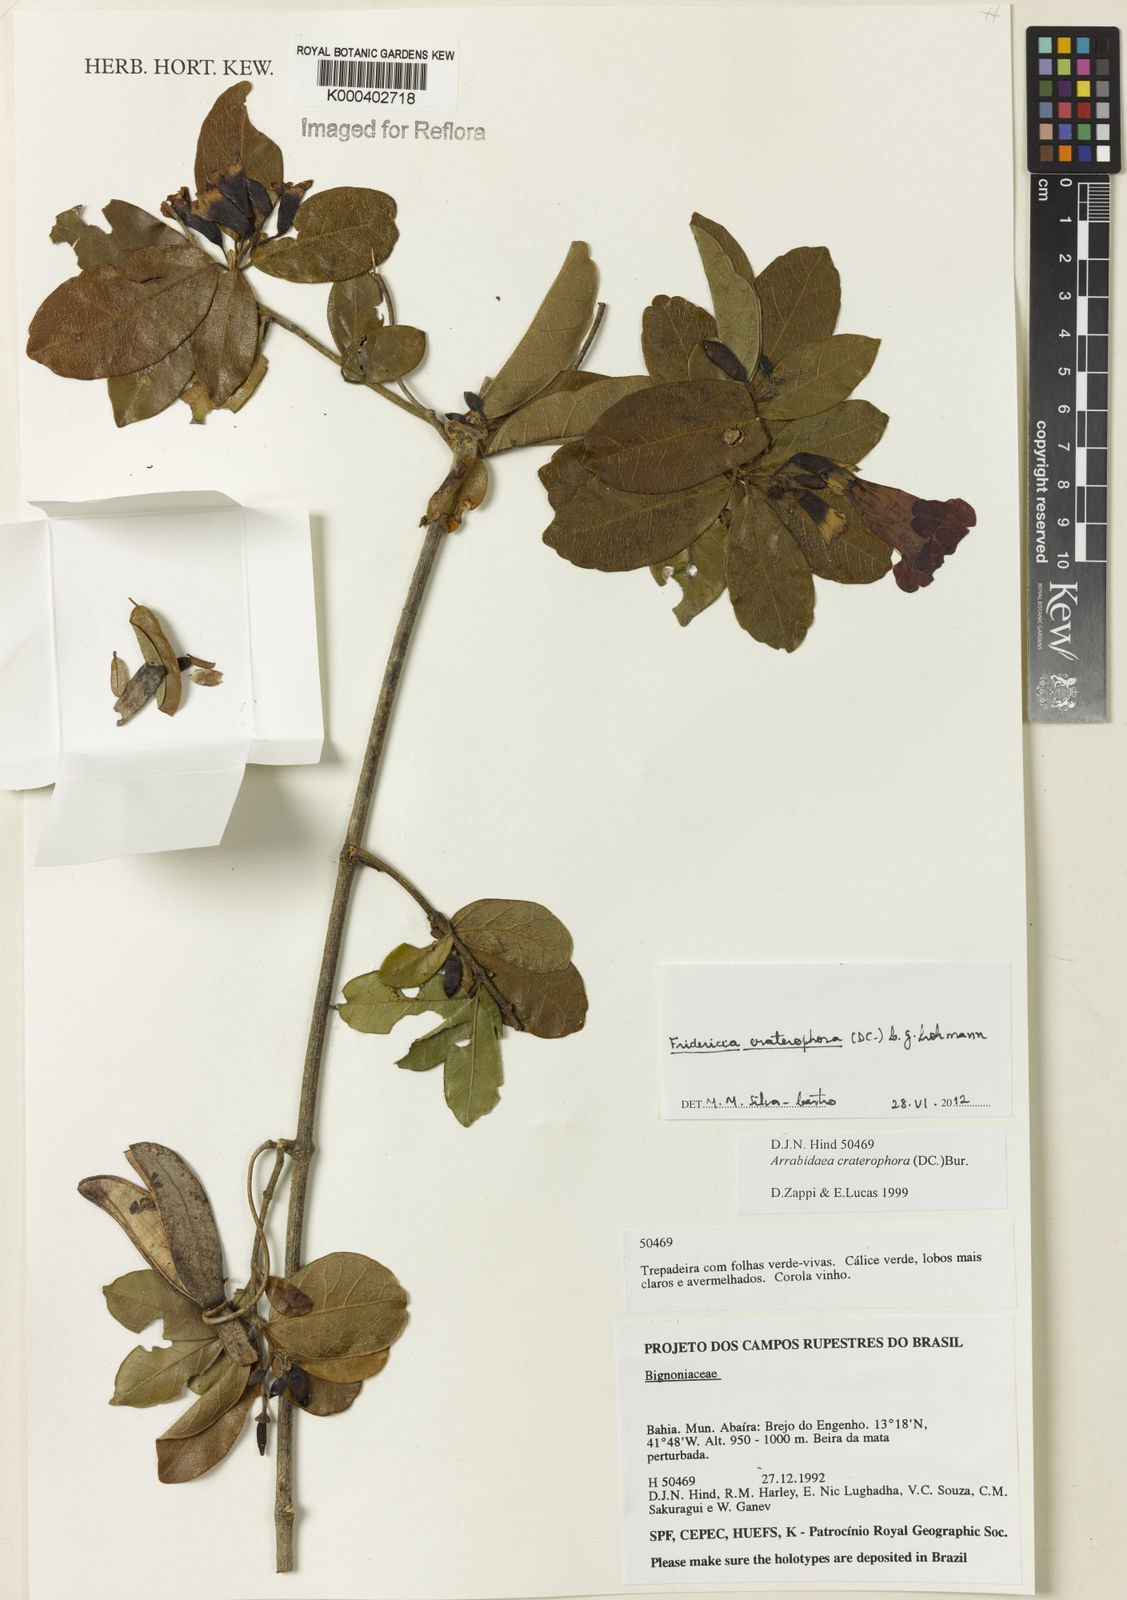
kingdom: Plantae
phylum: Tracheophyta
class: Magnoliopsida
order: Lamiales
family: Bignoniaceae
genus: Fridericia
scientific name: Fridericia craterophora
